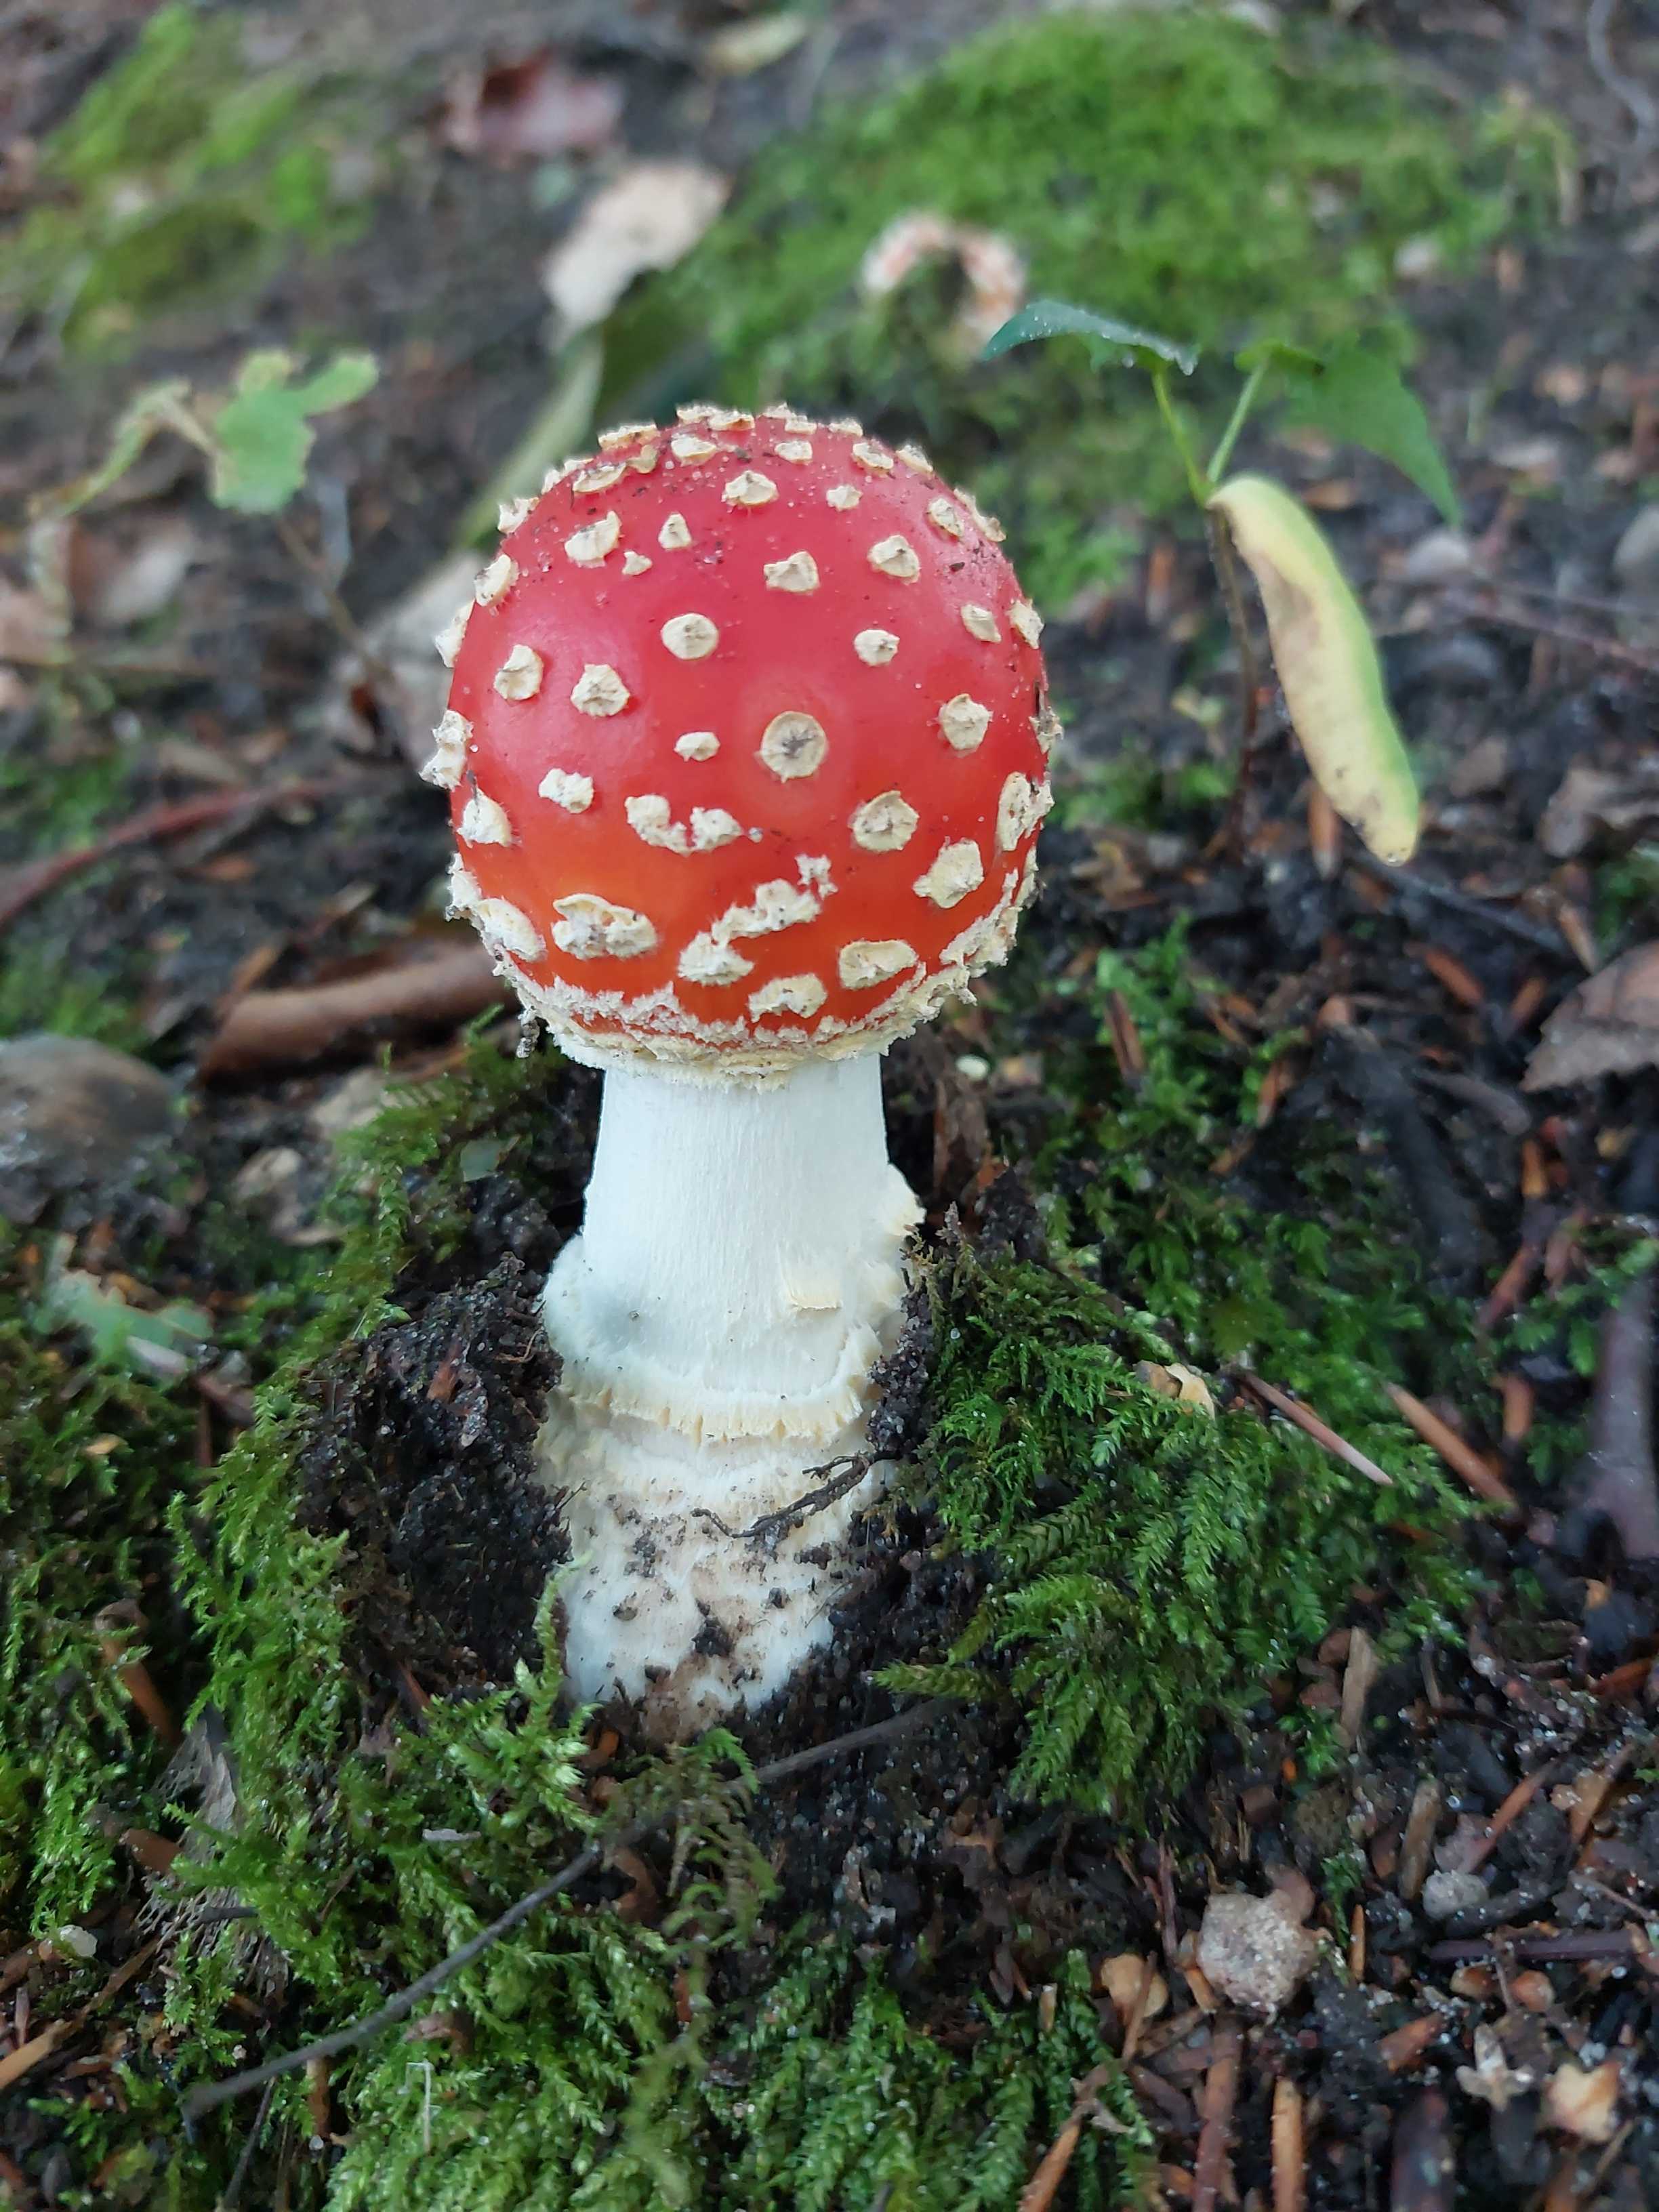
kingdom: Fungi
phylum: Basidiomycota
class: Agaricomycetes
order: Agaricales
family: Amanitaceae
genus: Amanita
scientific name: Amanita muscaria
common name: rød fluesvamp
